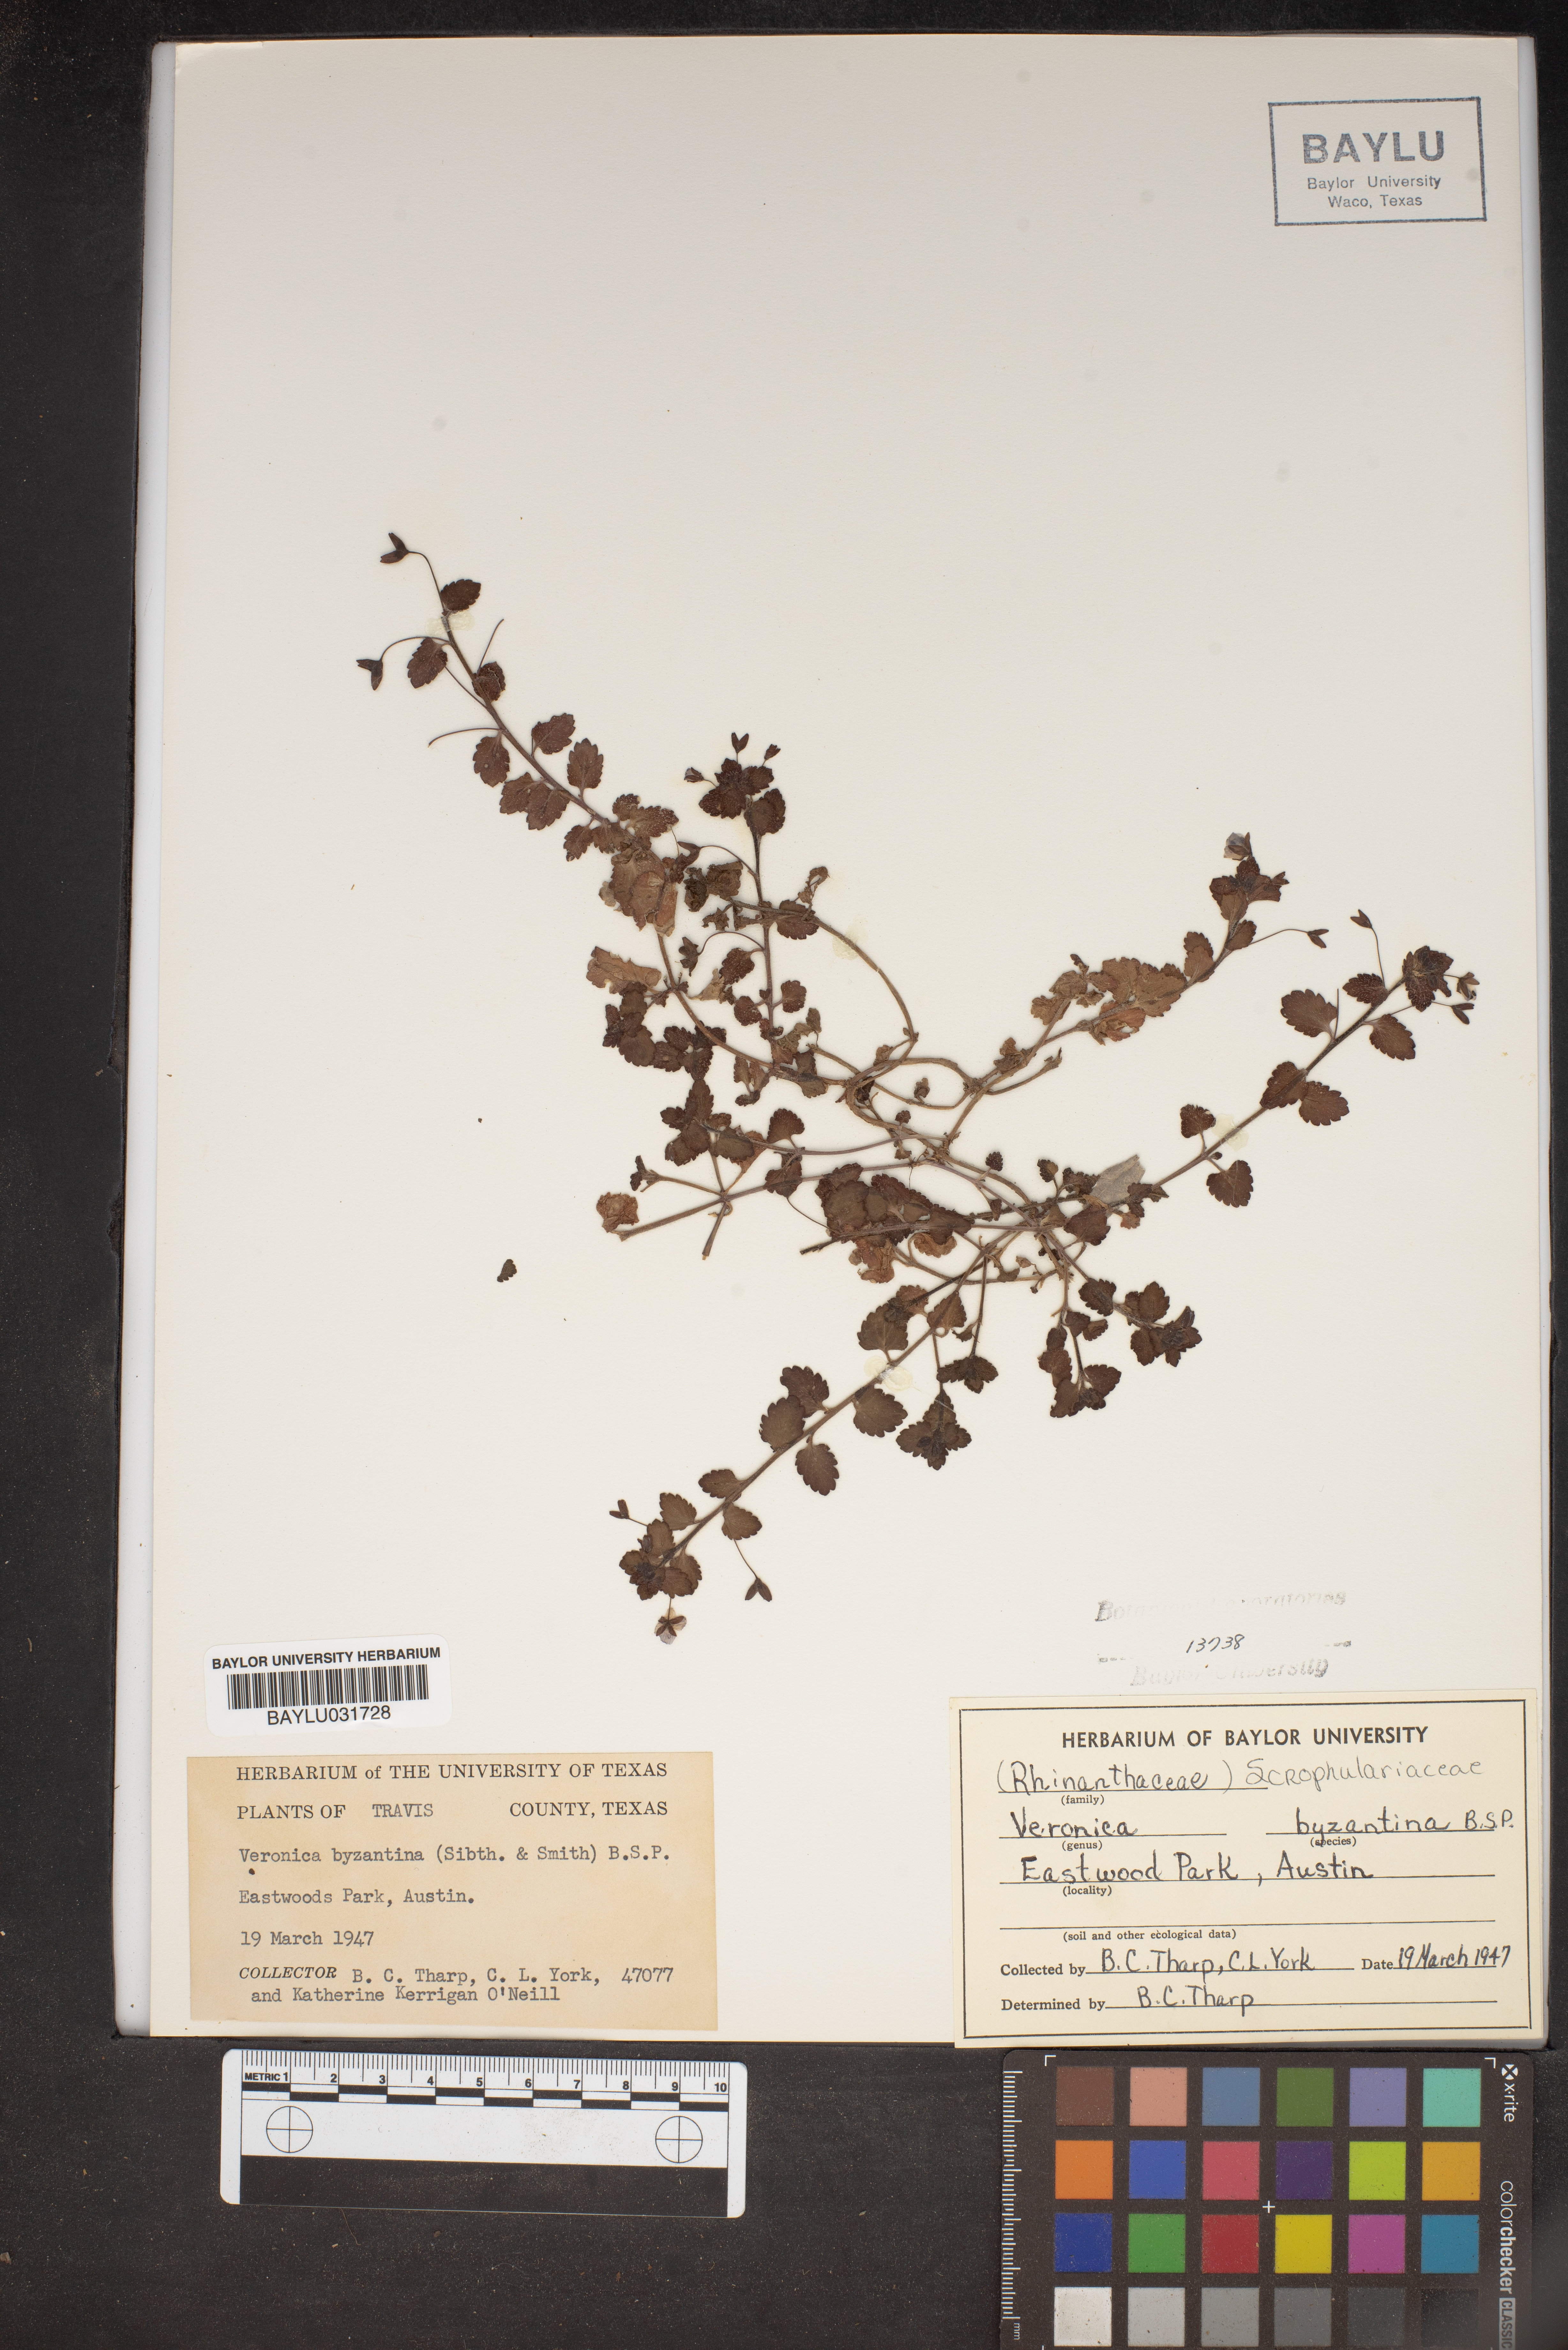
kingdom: Plantae
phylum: Tracheophyta
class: Magnoliopsida
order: Lamiales
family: Plantaginaceae
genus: Veronica
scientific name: Veronica persica
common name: Common field-speedwell
